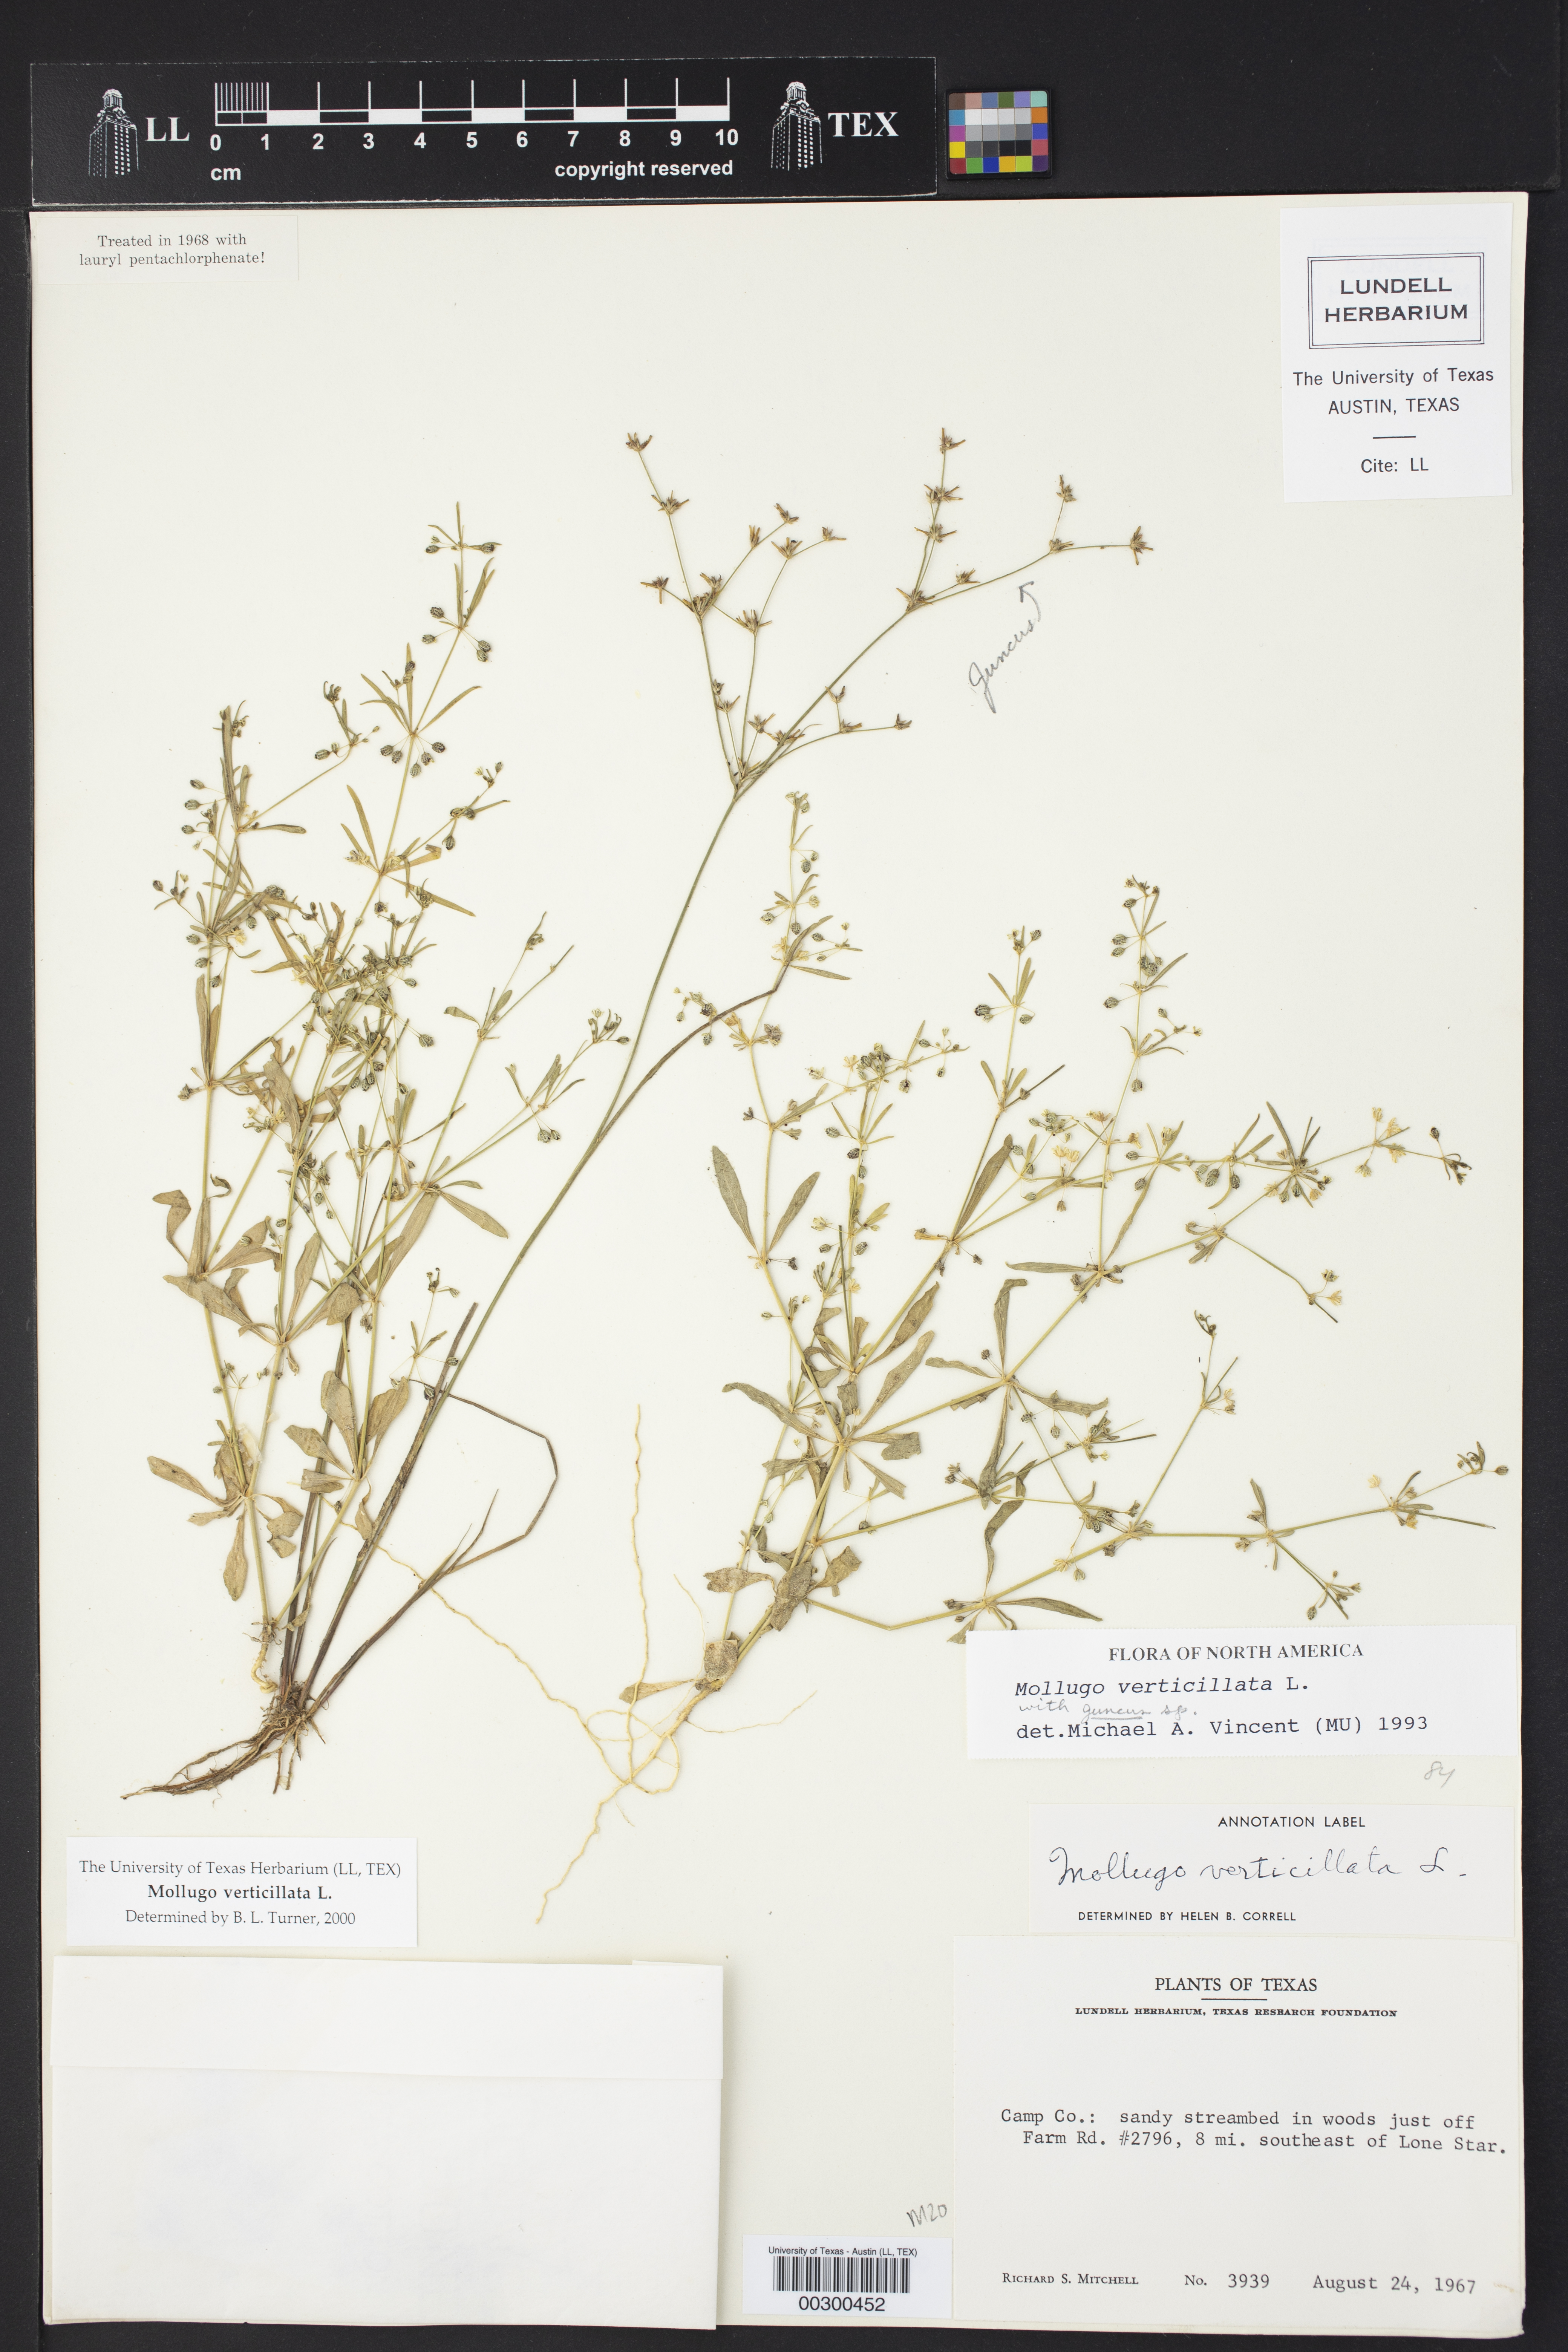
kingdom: Plantae
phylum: Tracheophyta
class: Magnoliopsida
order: Caryophyllales
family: Molluginaceae
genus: Mollugo
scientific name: Mollugo verticillata
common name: Green carpetweed
